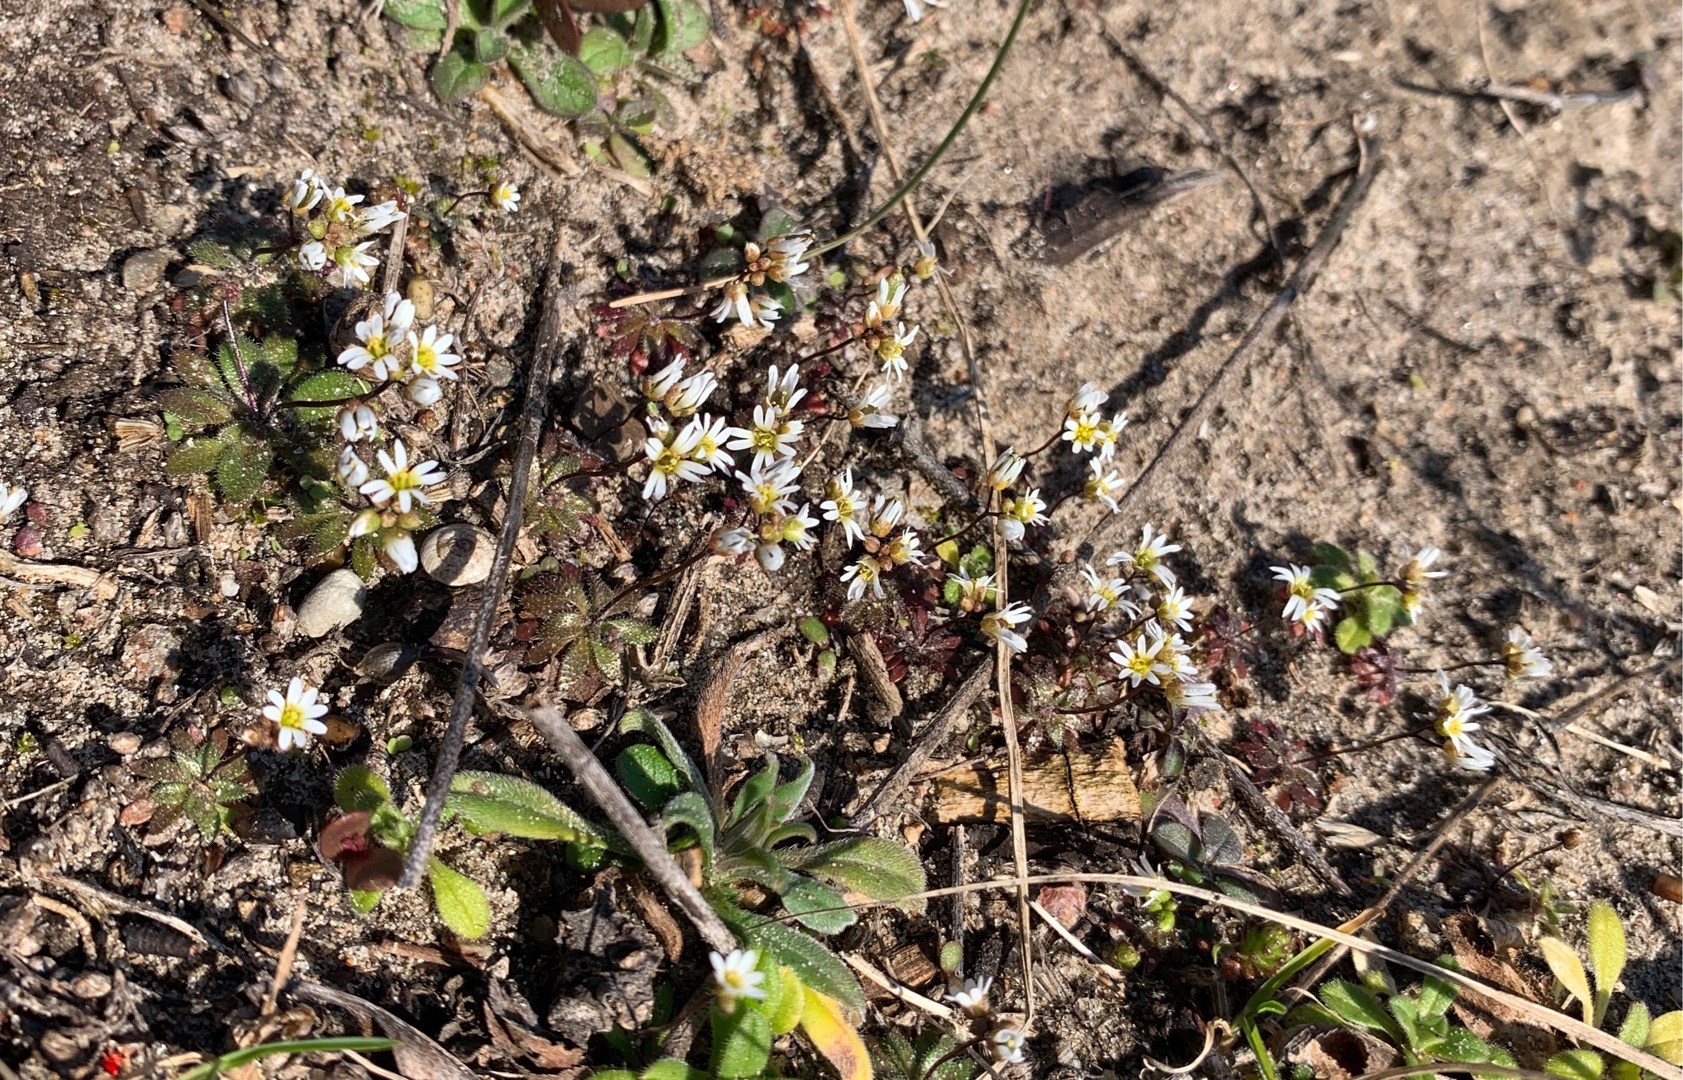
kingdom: Plantae
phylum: Tracheophyta
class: Magnoliopsida
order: Brassicales
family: Brassicaceae
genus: Draba
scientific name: Draba verna
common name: Vår-gæslingeblomst
